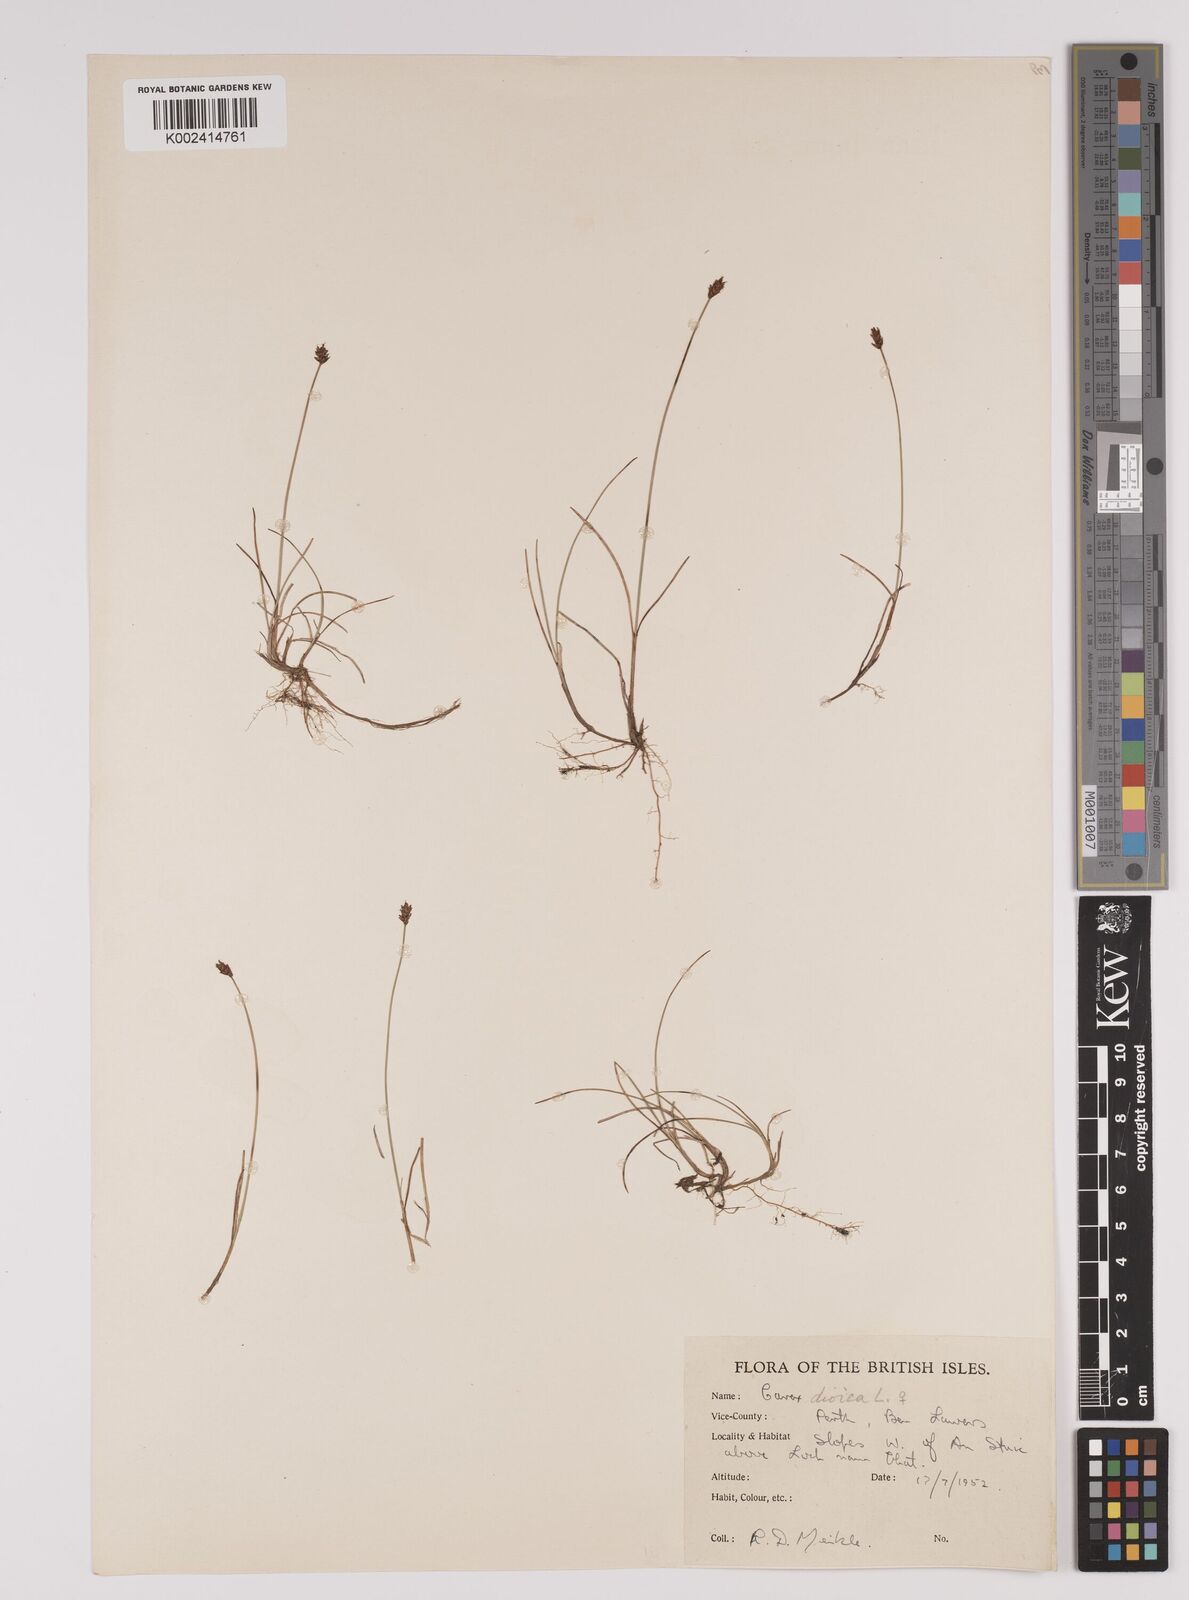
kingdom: Plantae
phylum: Tracheophyta
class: Liliopsida
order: Poales
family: Cyperaceae
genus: Carex
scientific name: Carex dioica
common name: Dioecious sedge
